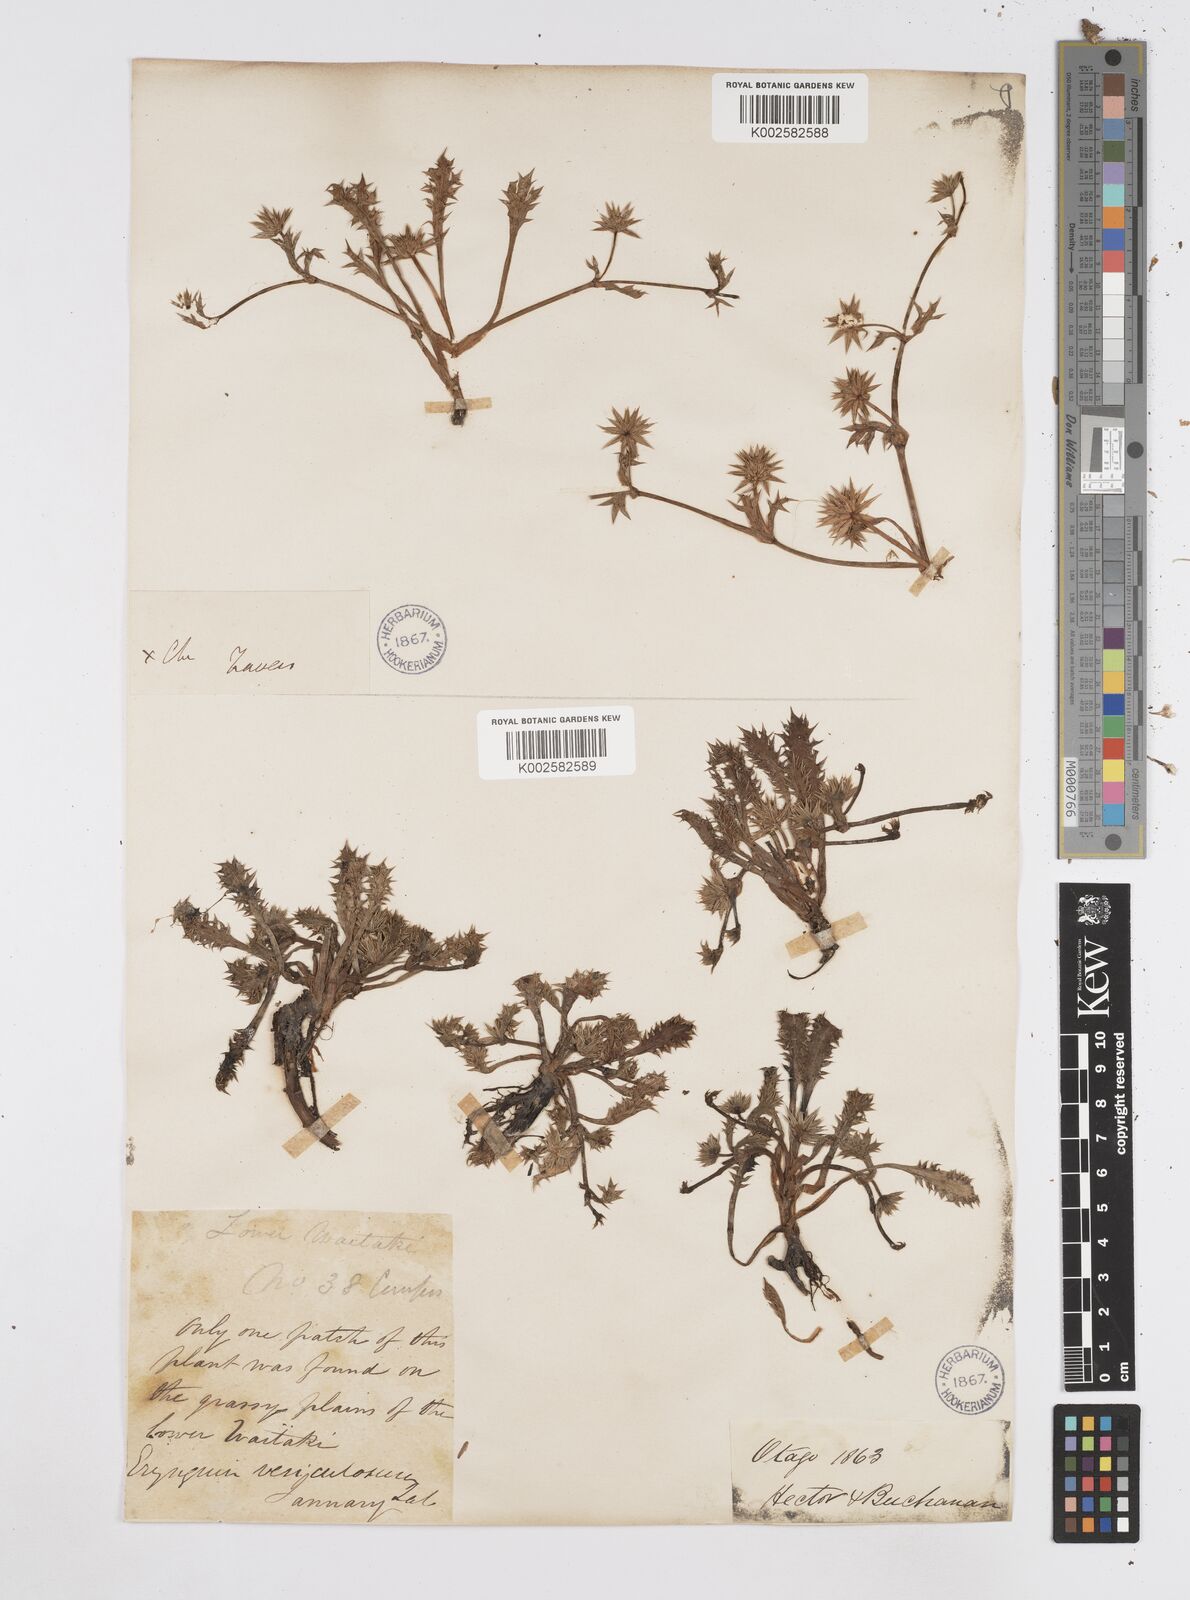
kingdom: Plantae
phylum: Tracheophyta
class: Magnoliopsida
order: Apiales
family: Apiaceae
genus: Eryngium
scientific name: Eryngium vesiculosum
